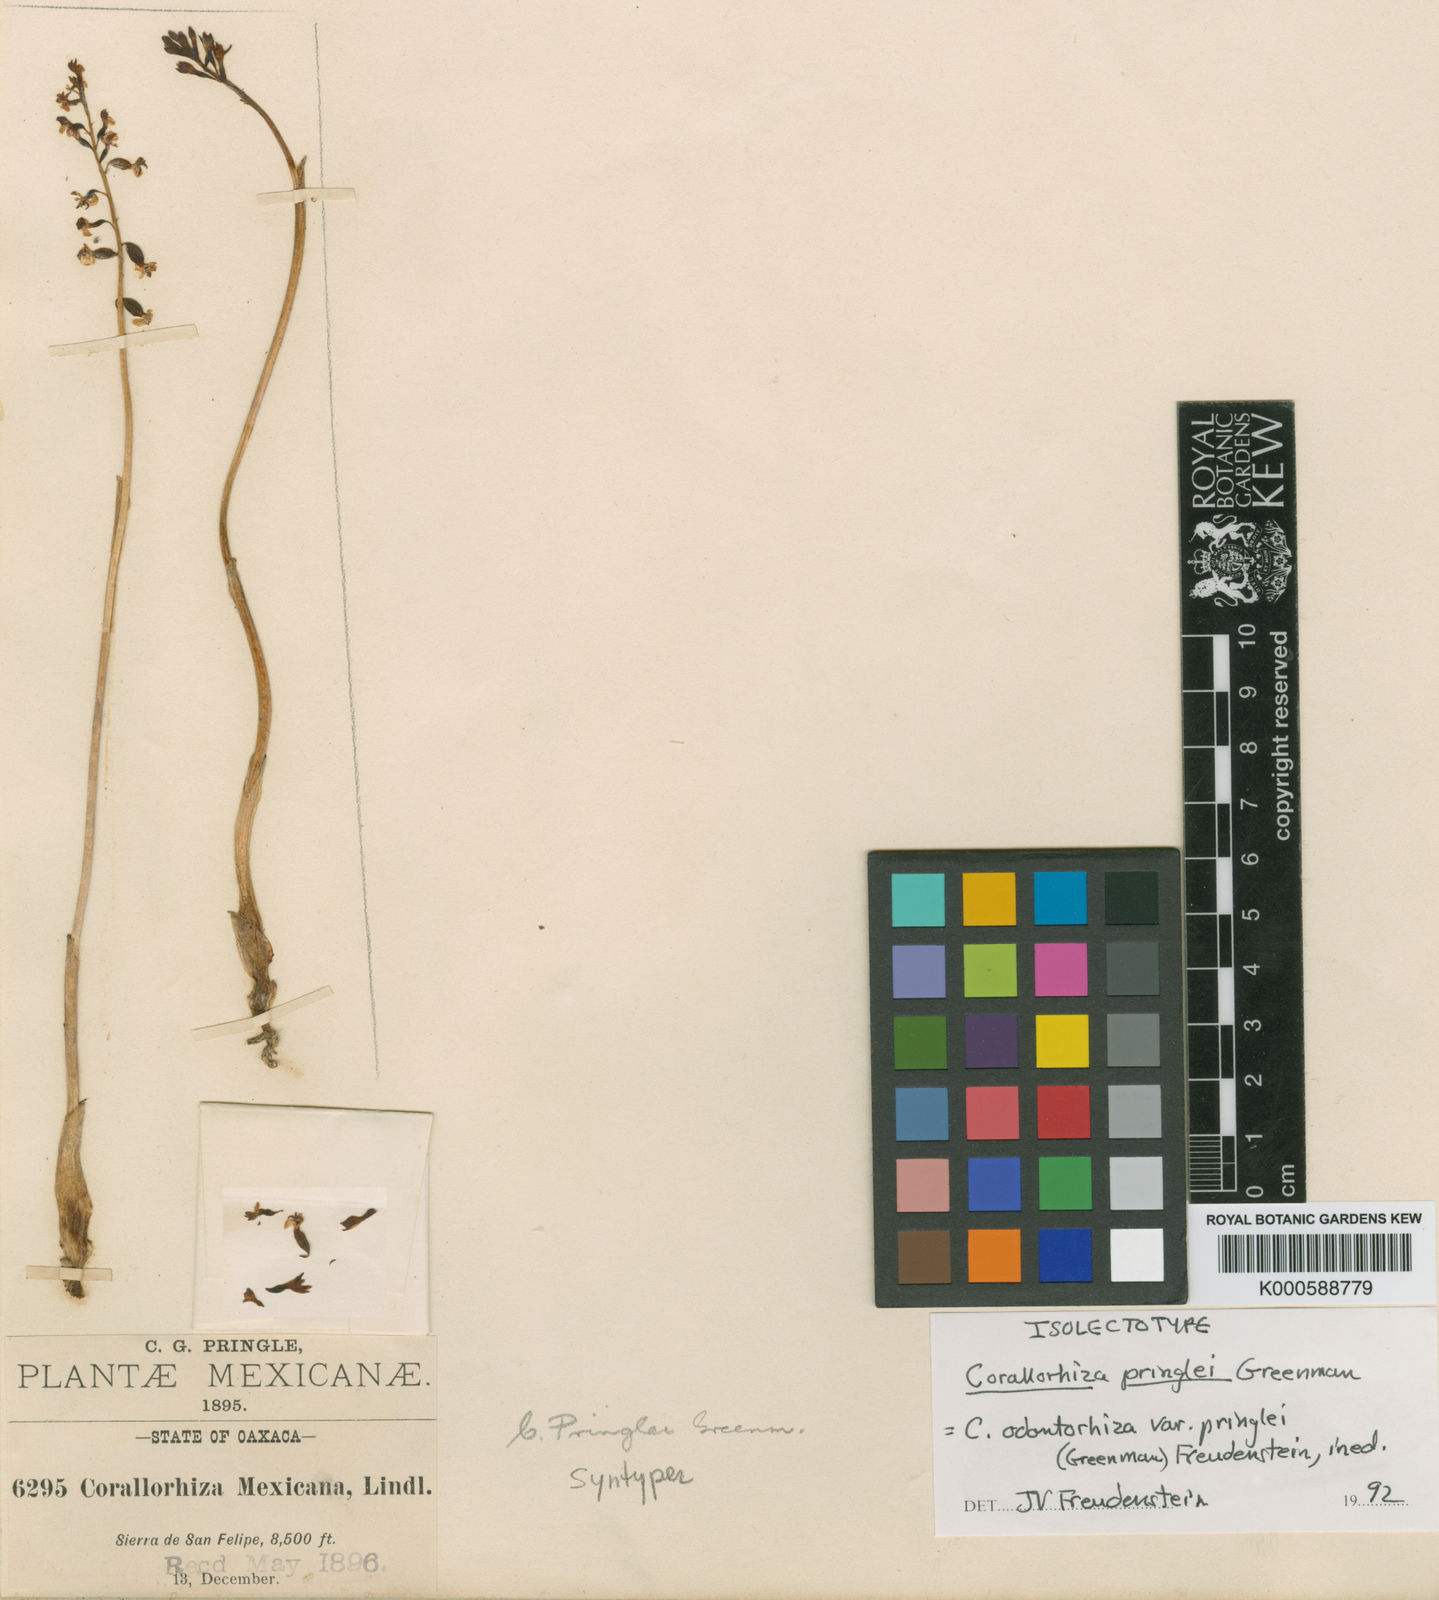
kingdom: Plantae
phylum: Tracheophyta
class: Liliopsida
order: Asparagales
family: Orchidaceae
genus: Corallorhiza
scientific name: Corallorhiza
